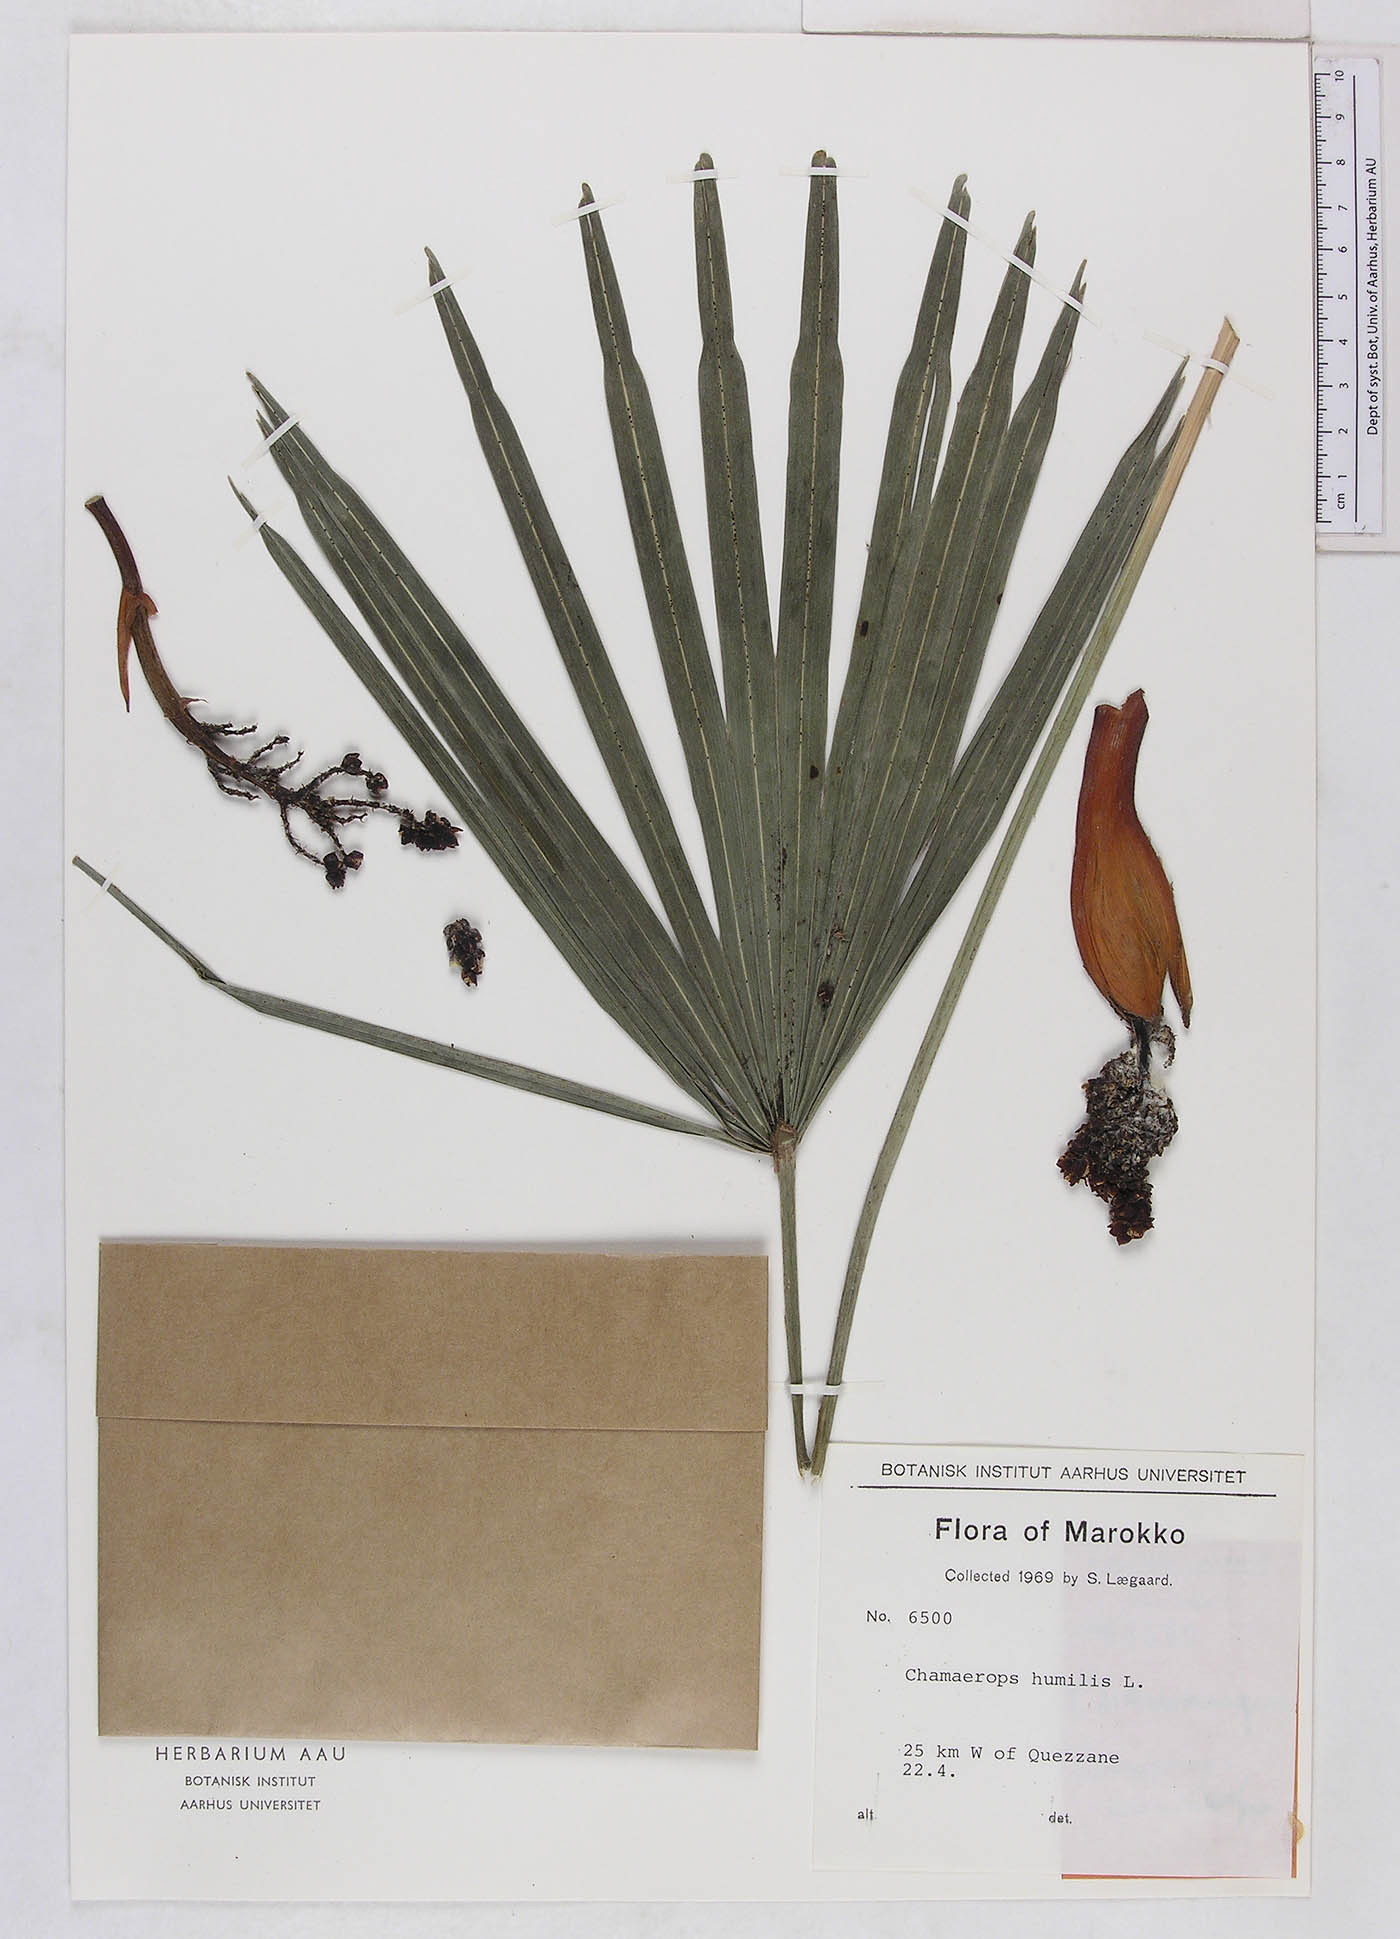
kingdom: Plantae
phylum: Tracheophyta
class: Liliopsida
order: Arecales
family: Arecaceae
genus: Chamaerops
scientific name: Chamaerops humilis
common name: Dwarf fan palm
